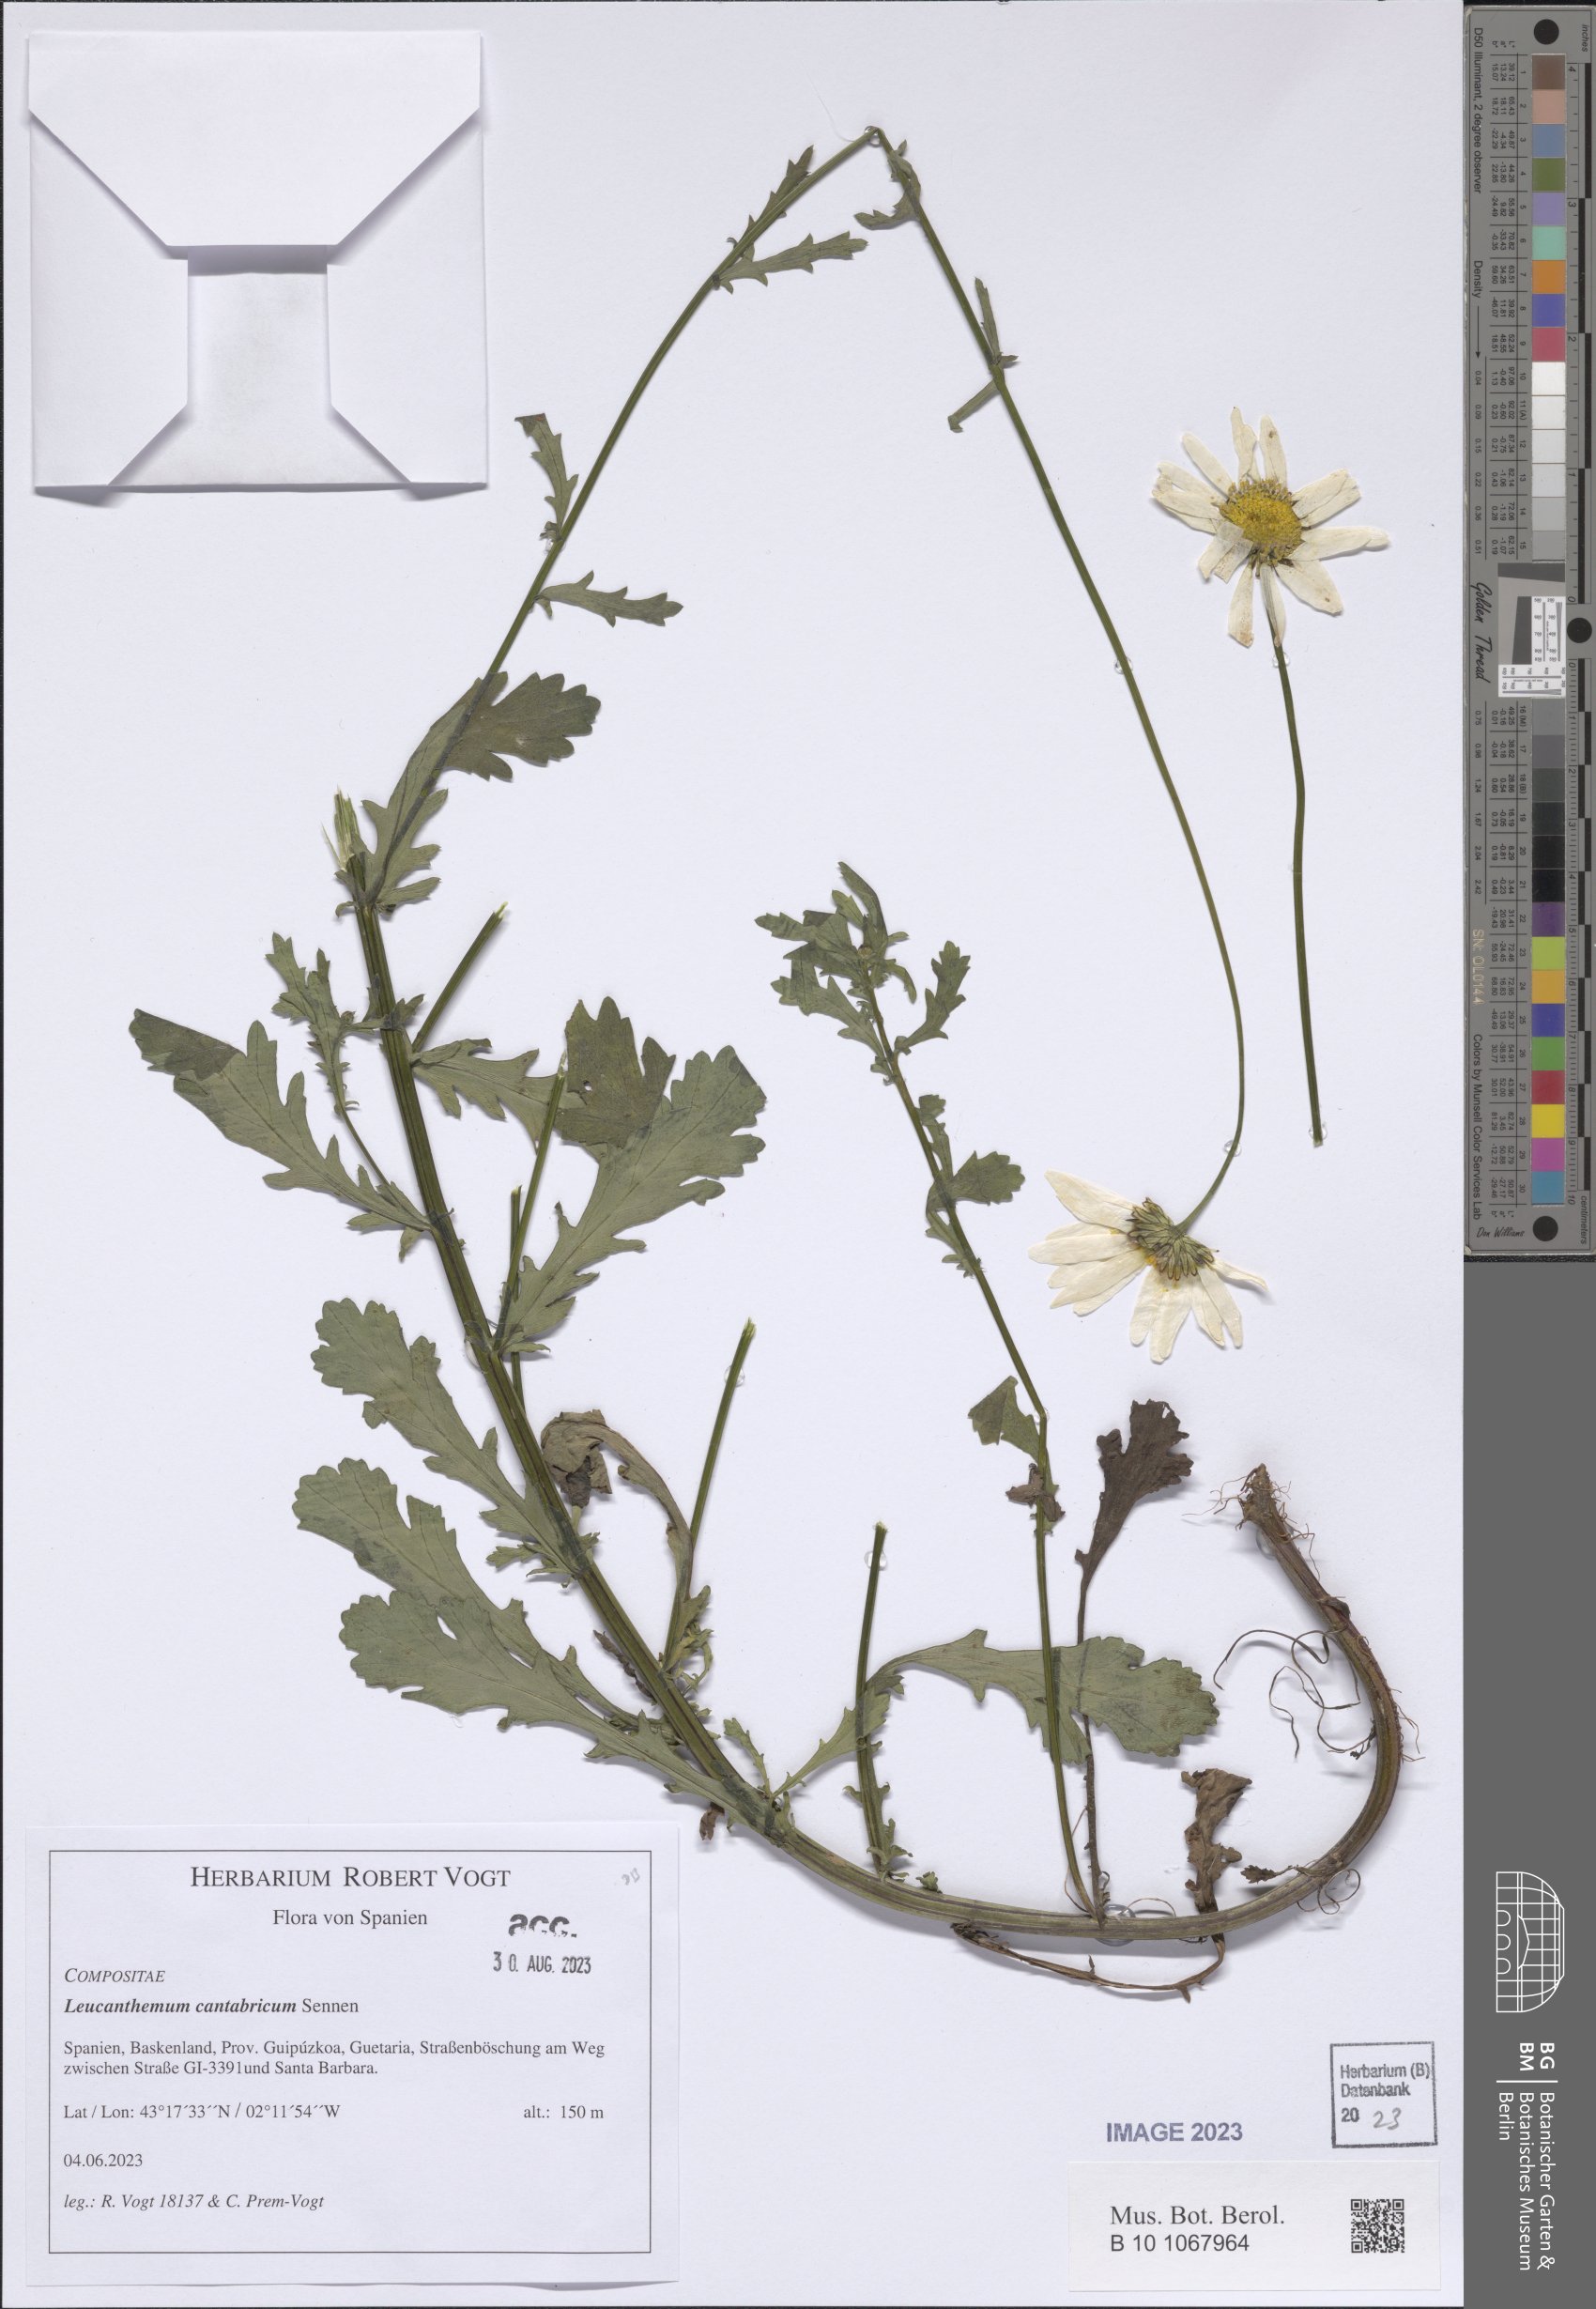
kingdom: Plantae
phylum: Tracheophyta
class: Magnoliopsida
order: Asterales
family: Asteraceae
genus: Leucanthemum
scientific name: Leucanthemum cantabricum
